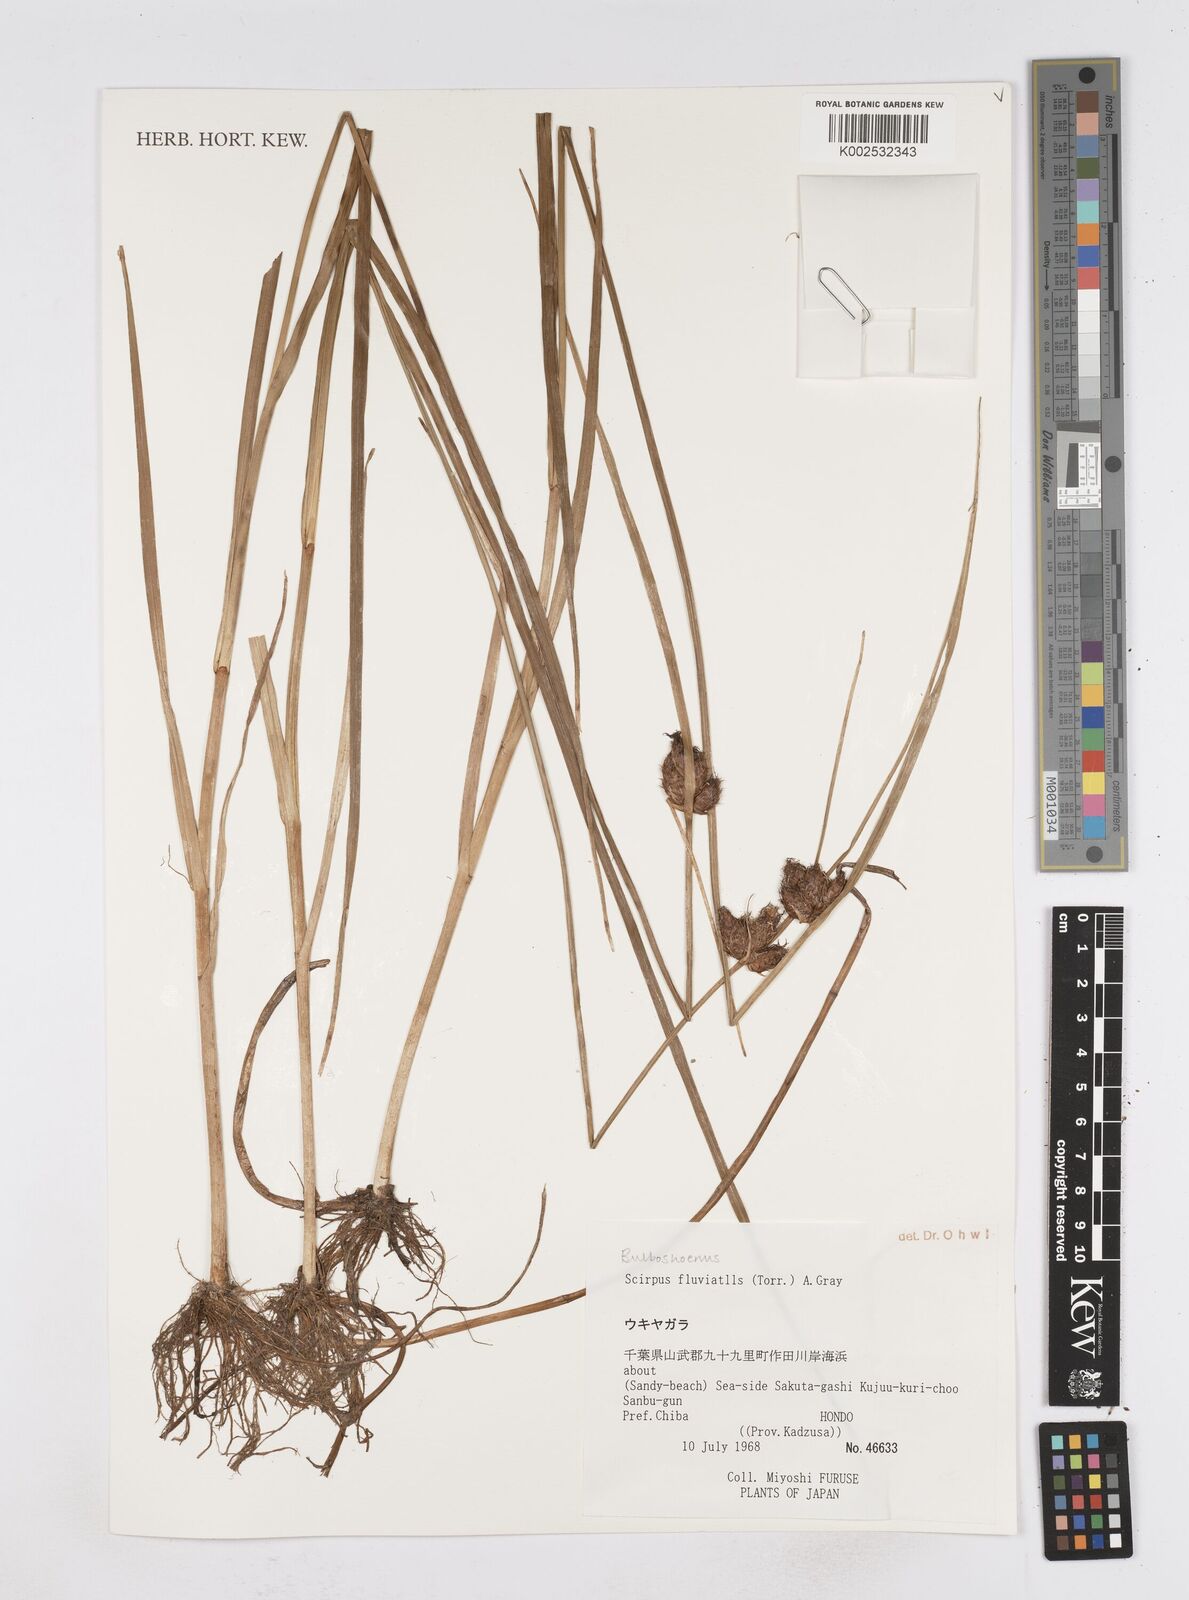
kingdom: Plantae
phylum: Tracheophyta
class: Liliopsida
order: Poales
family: Cyperaceae
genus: Bolboschoenus
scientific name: Bolboschoenus planiculmis
